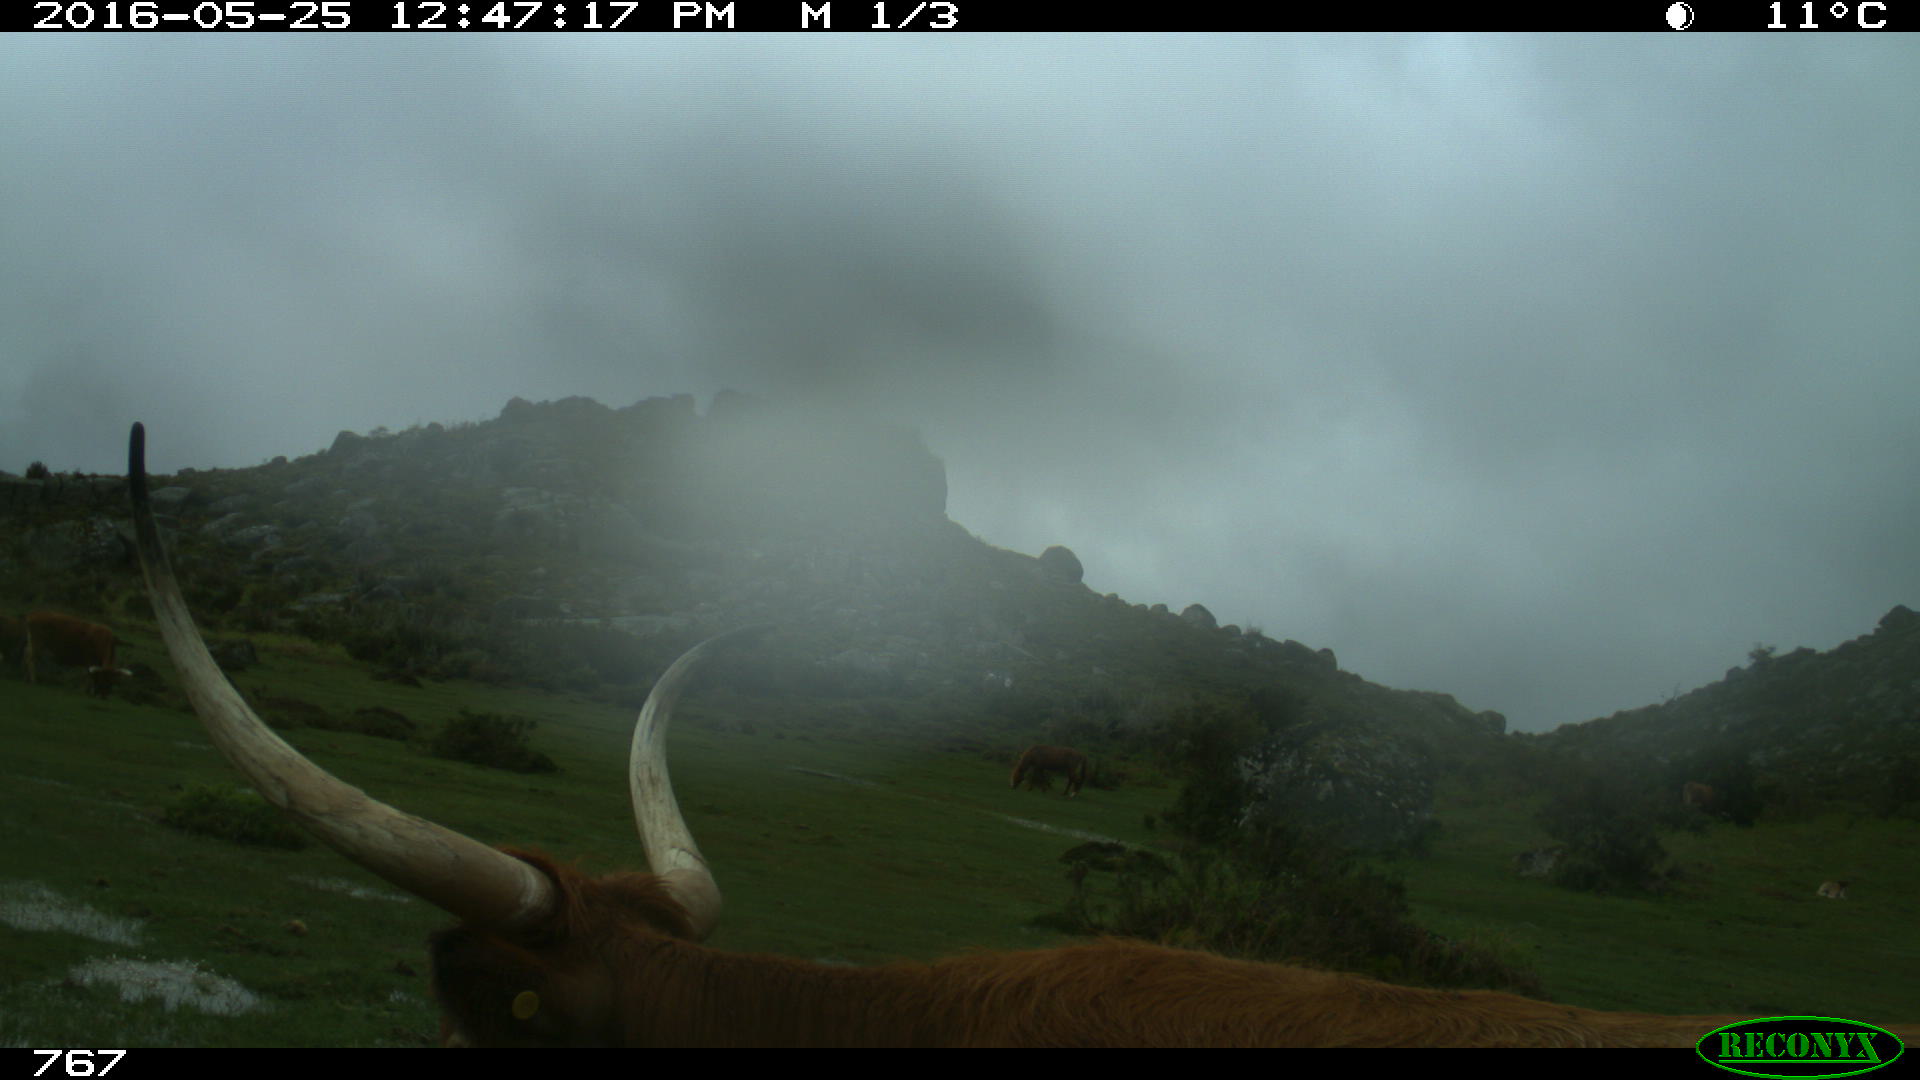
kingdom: Animalia
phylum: Chordata
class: Mammalia
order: Artiodactyla
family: Bovidae
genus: Bos
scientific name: Bos taurus
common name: Domesticated cattle
